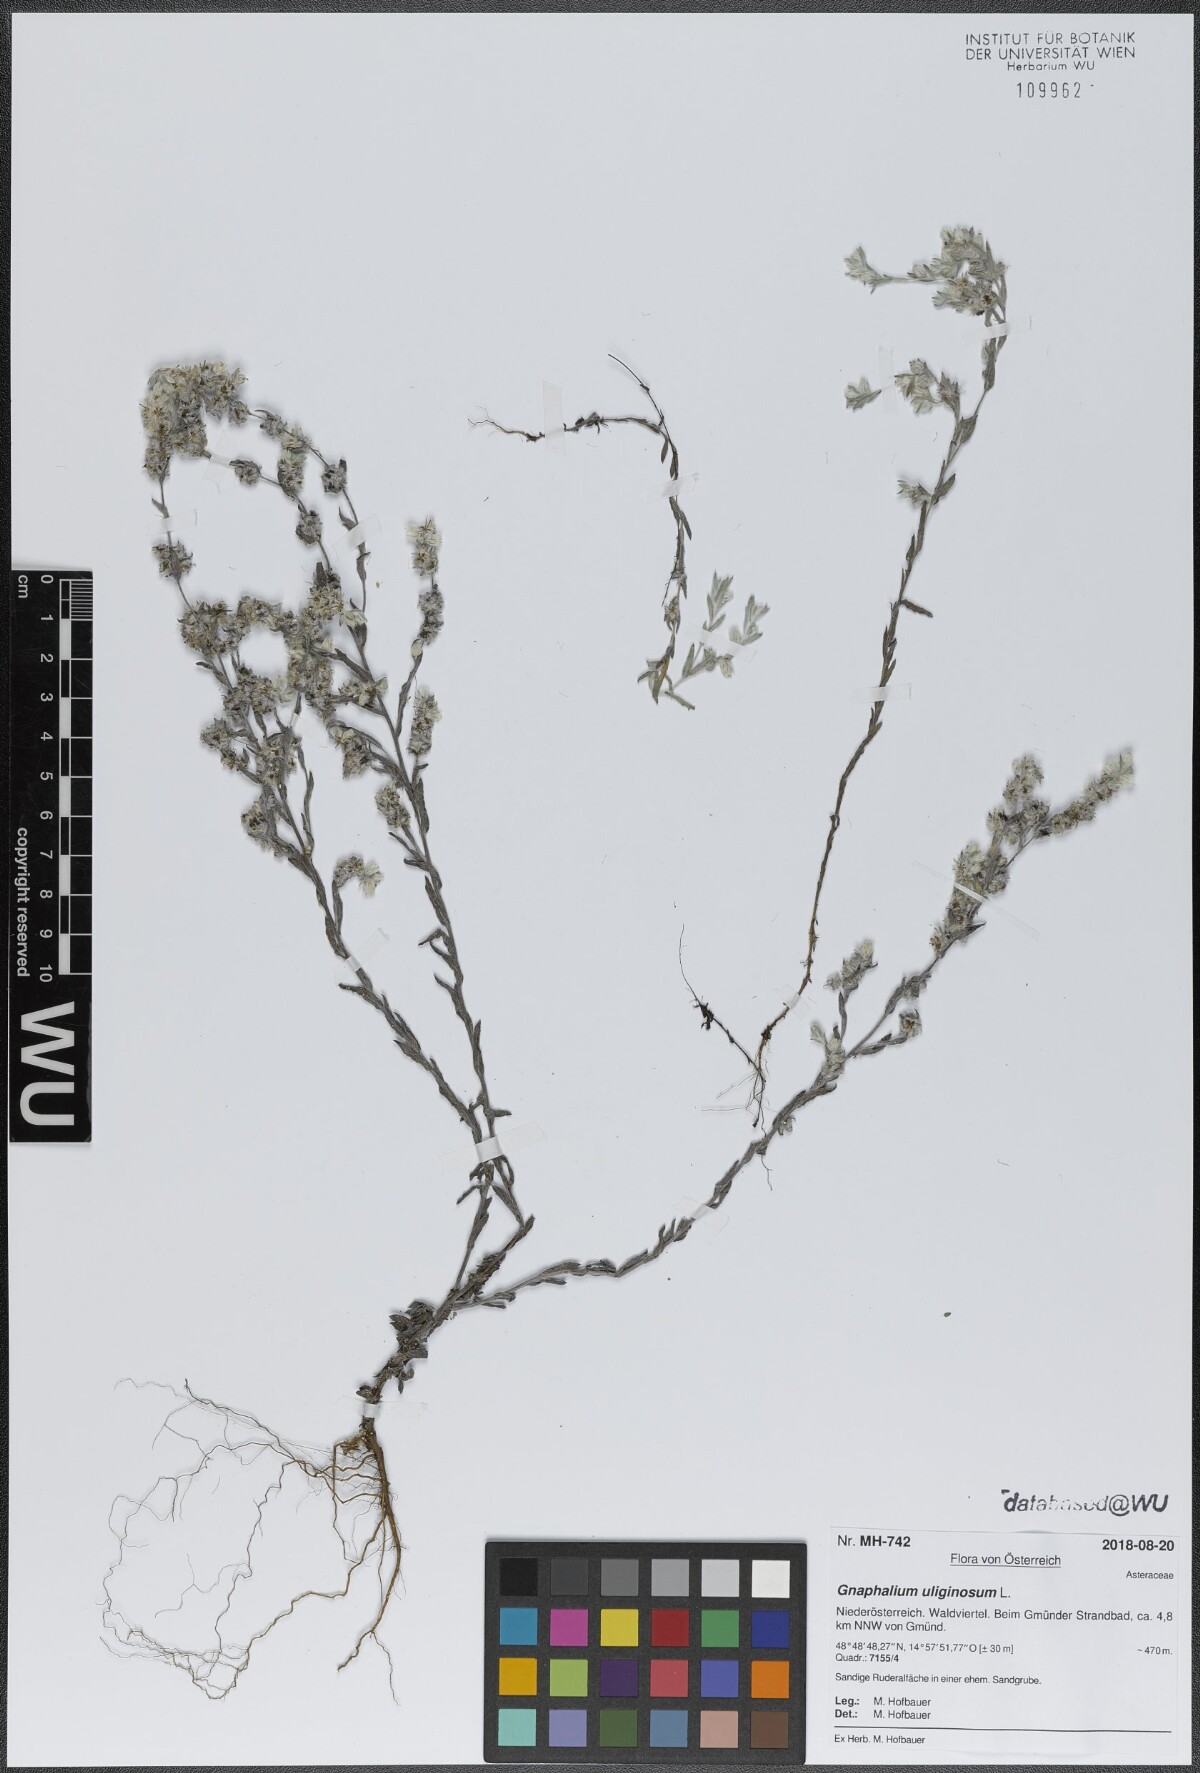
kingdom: Plantae
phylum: Tracheophyta
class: Magnoliopsida
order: Asterales
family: Asteraceae
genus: Gnaphalium
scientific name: Gnaphalium uliginosum
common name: Marsh cudweed
